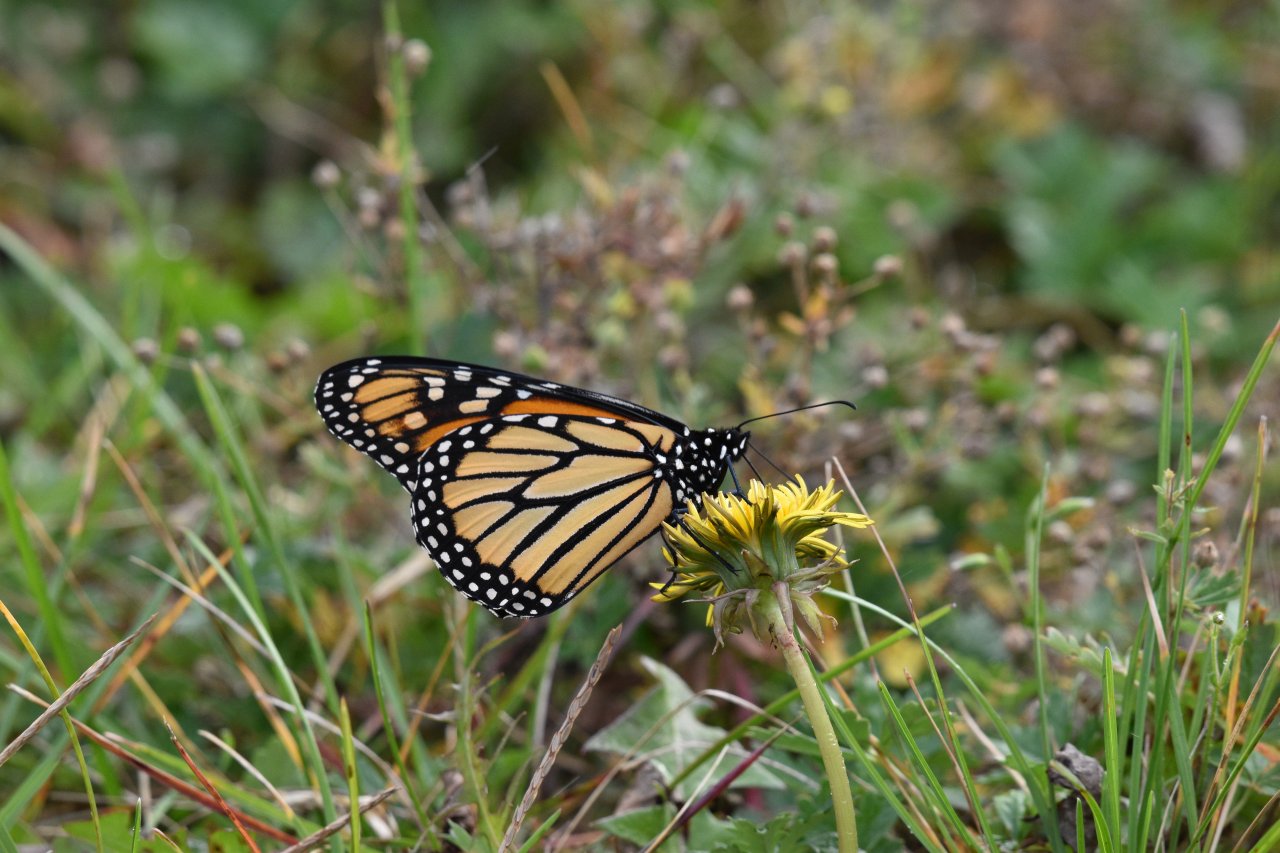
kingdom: Animalia
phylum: Arthropoda
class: Insecta
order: Lepidoptera
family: Nymphalidae
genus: Danaus
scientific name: Danaus plexippus
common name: Monarch
